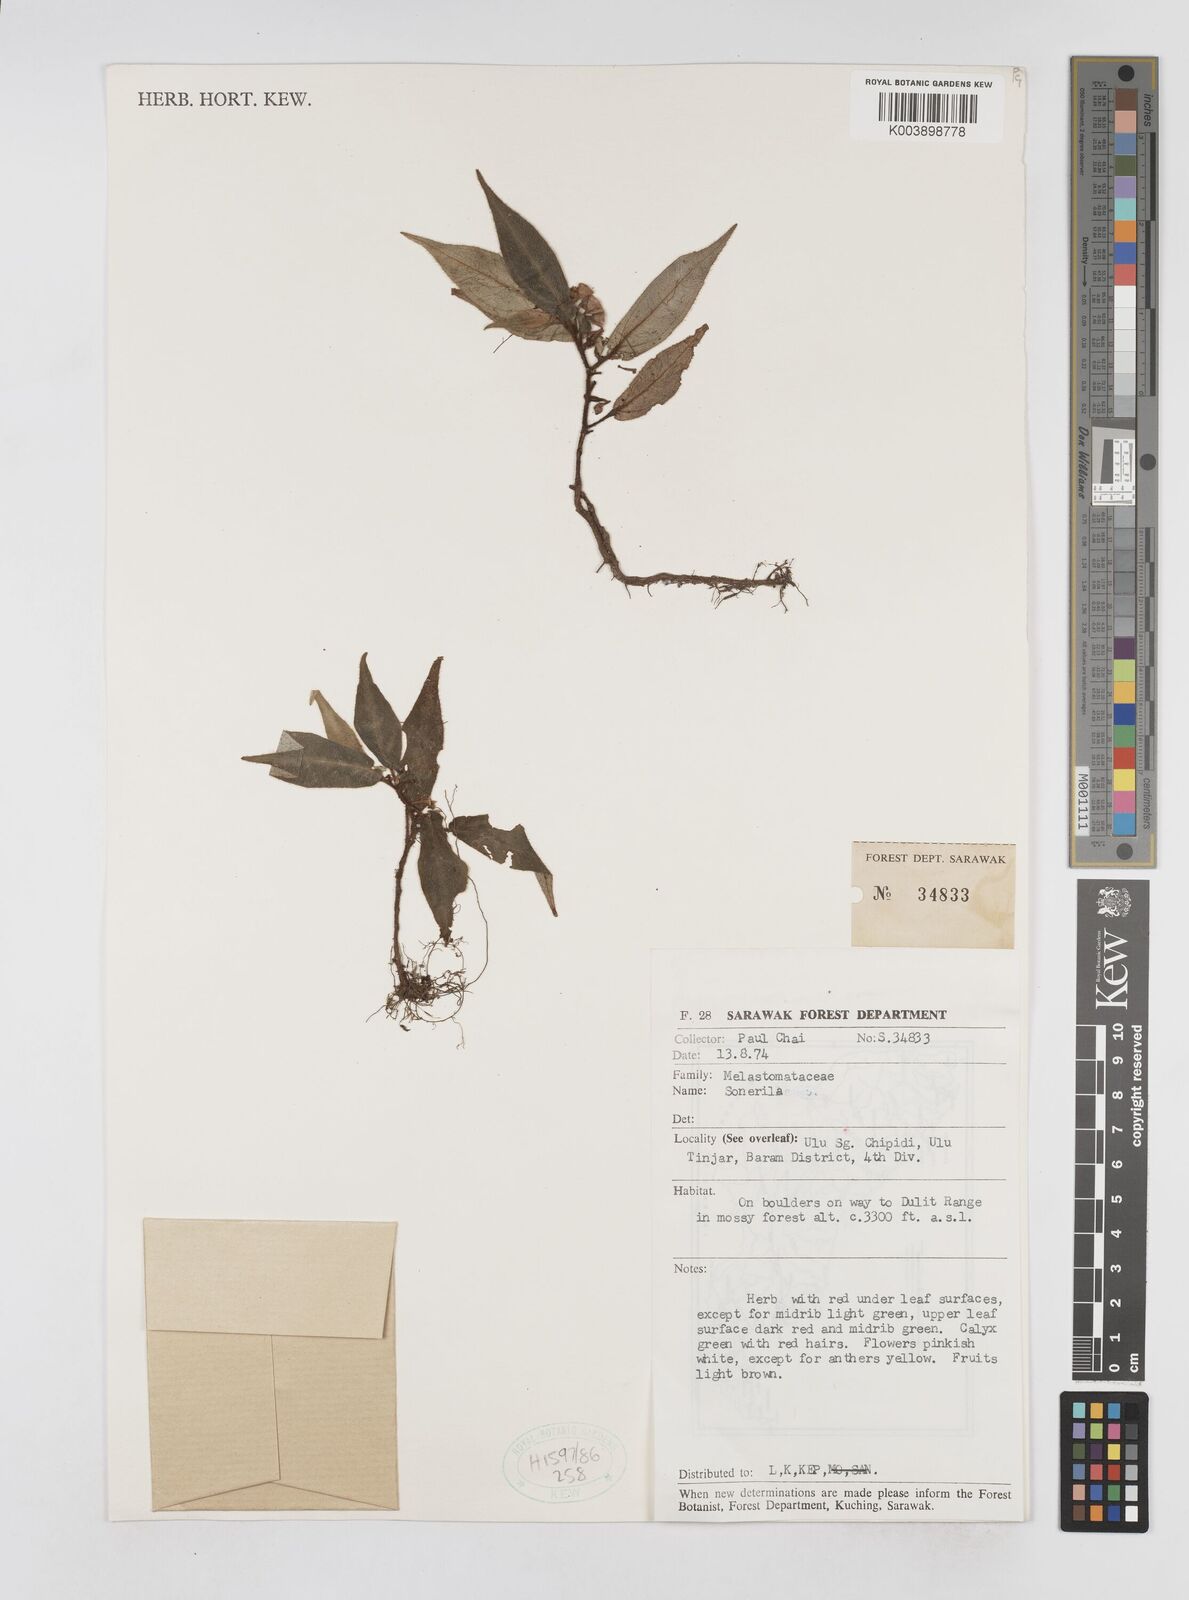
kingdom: Plantae
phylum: Tracheophyta
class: Magnoliopsida
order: Myrtales
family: Melastomataceae
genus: Sonerila
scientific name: Sonerila
